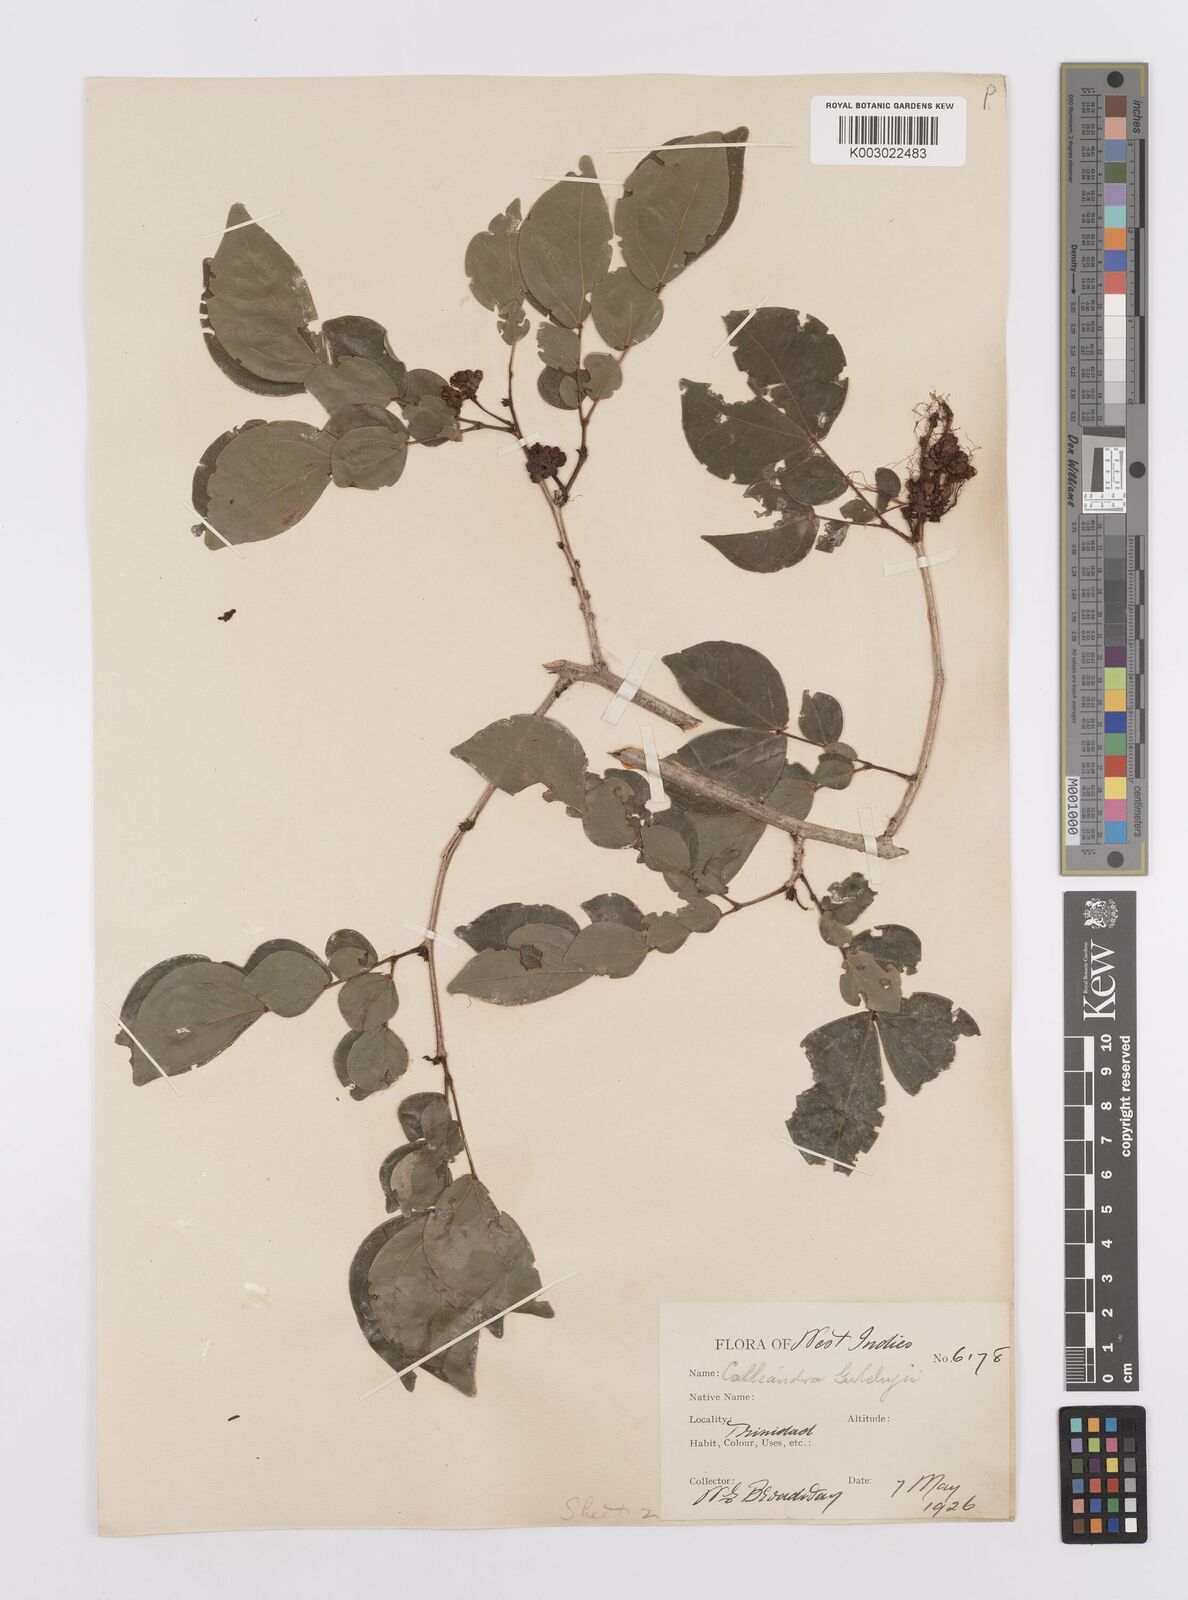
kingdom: Plantae
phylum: Tracheophyta
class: Magnoliopsida
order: Fabales
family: Fabaceae
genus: Calliandra
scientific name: Calliandra guildingii
